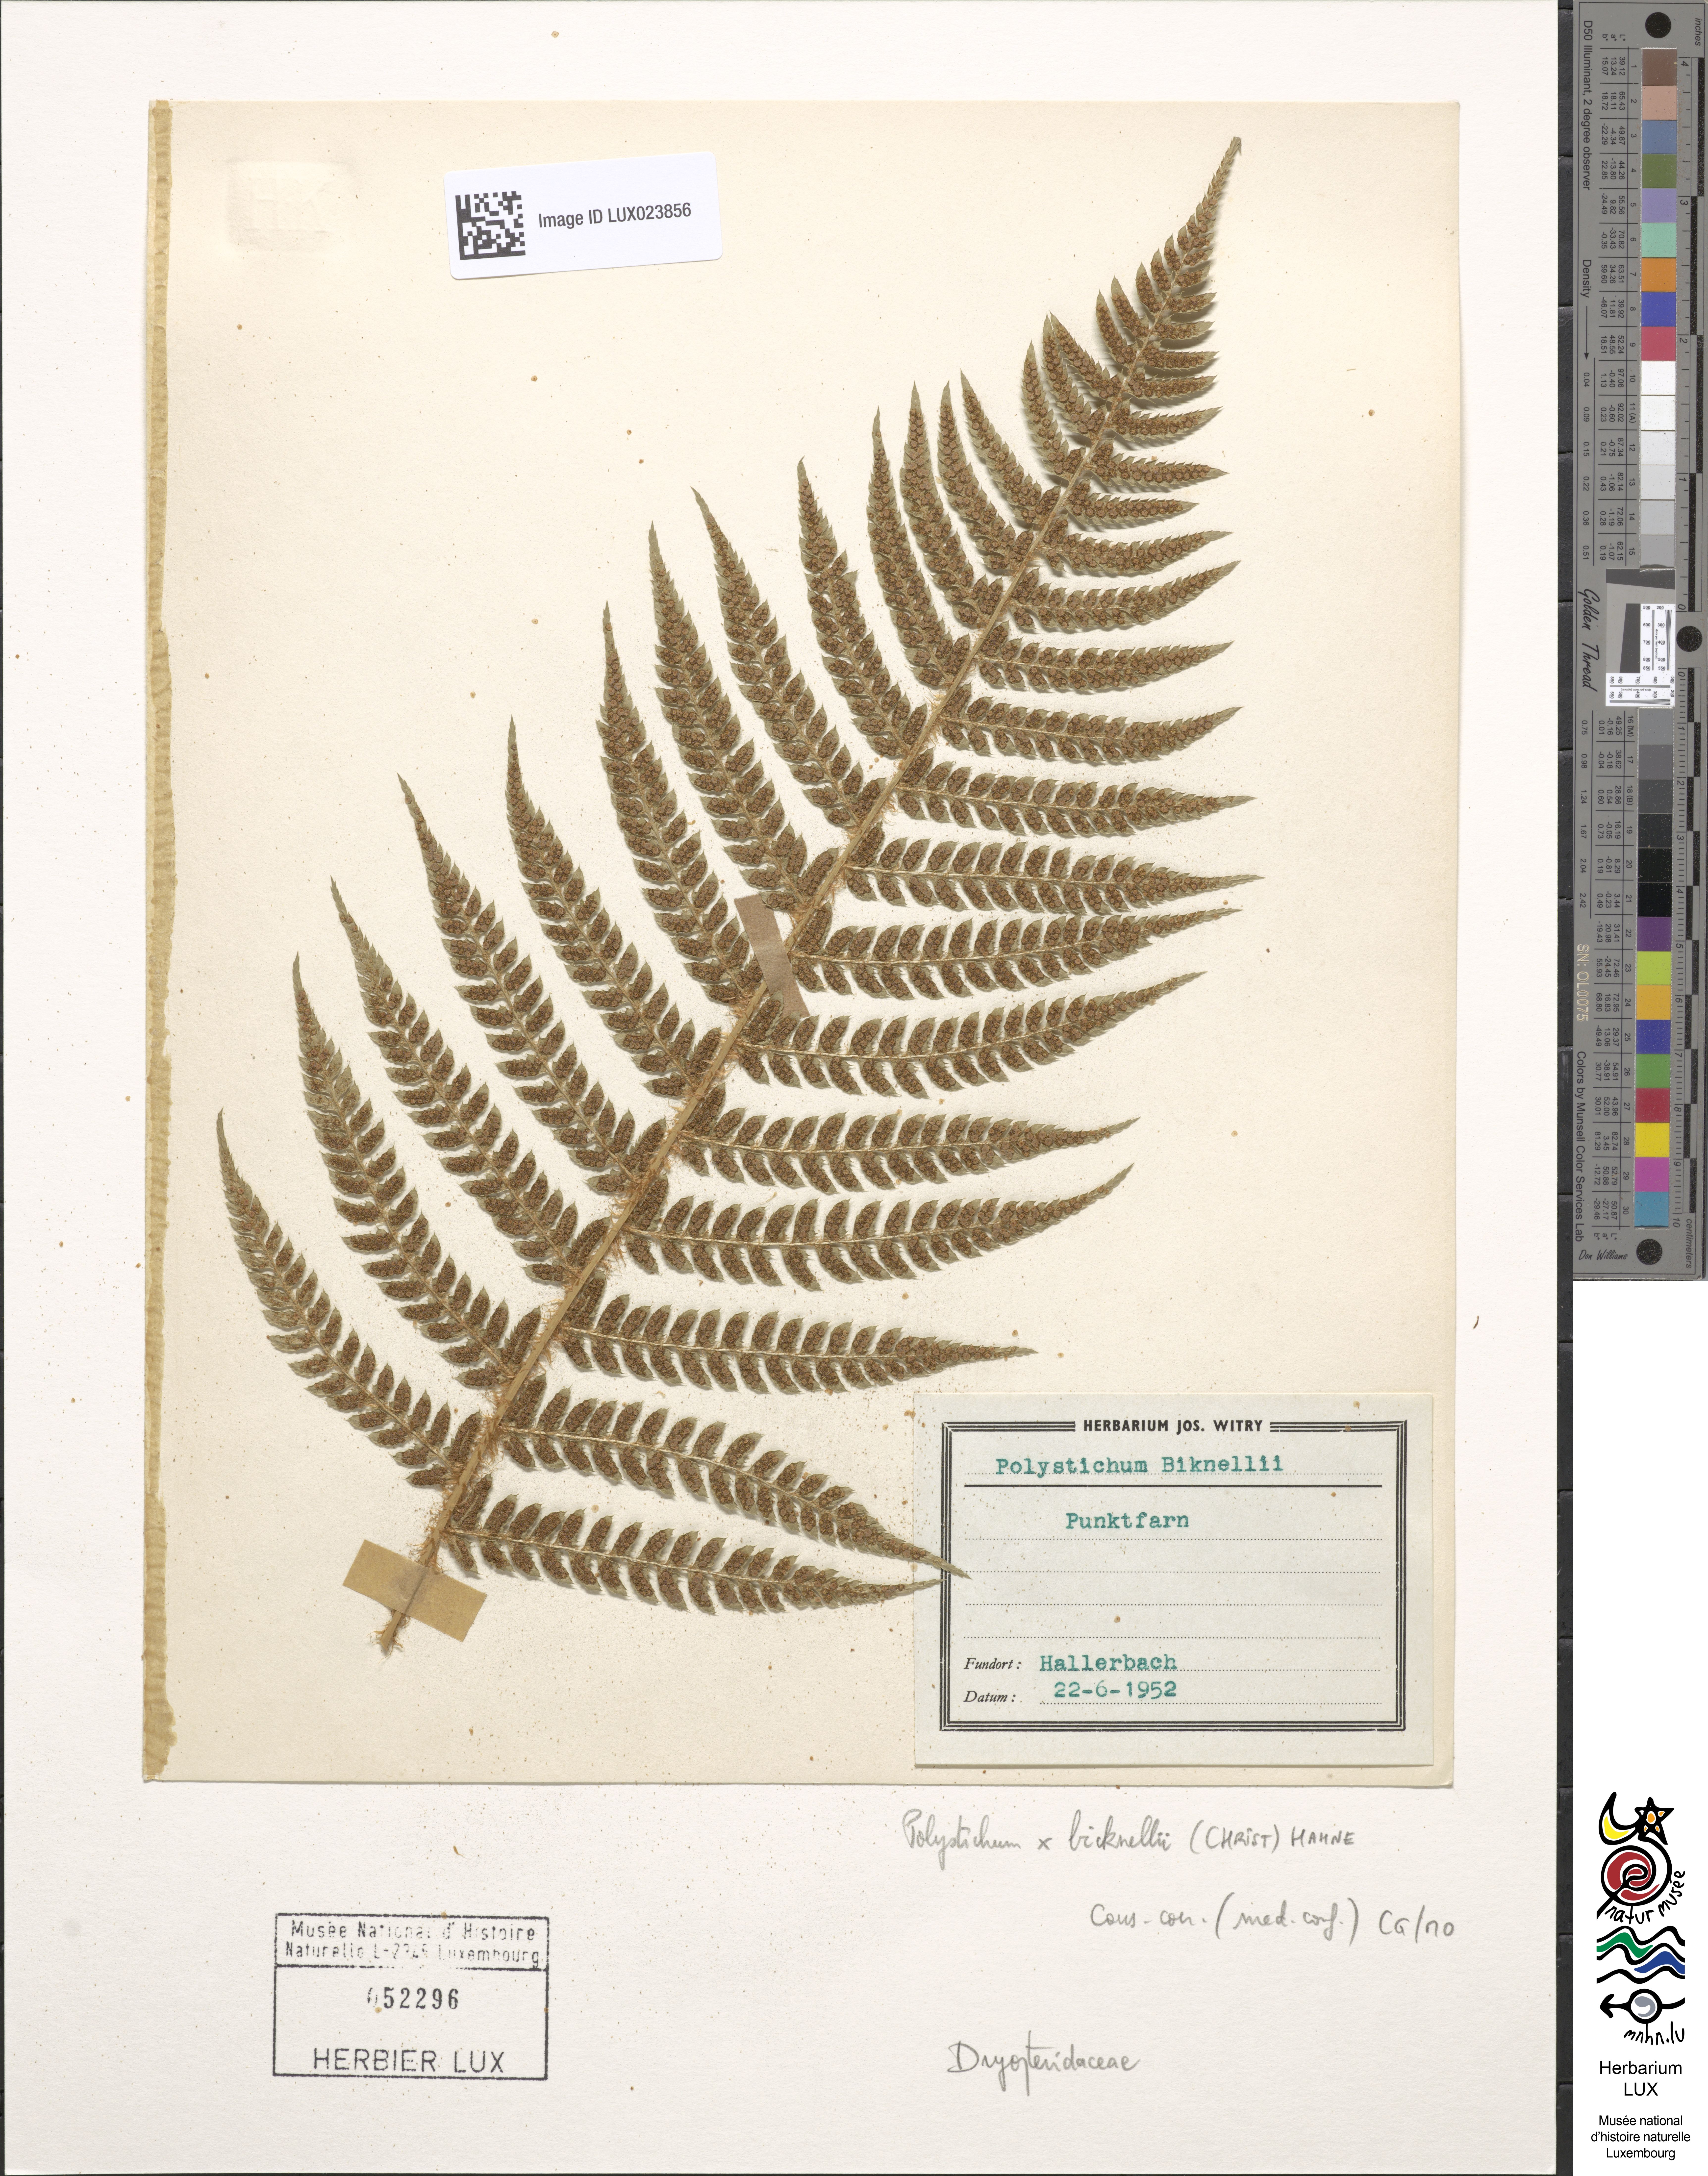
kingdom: Plantae
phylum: Tracheophyta
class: Polypodiopsida
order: Polypodiales
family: Dryopteridaceae
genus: Polystichum
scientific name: Polystichum
